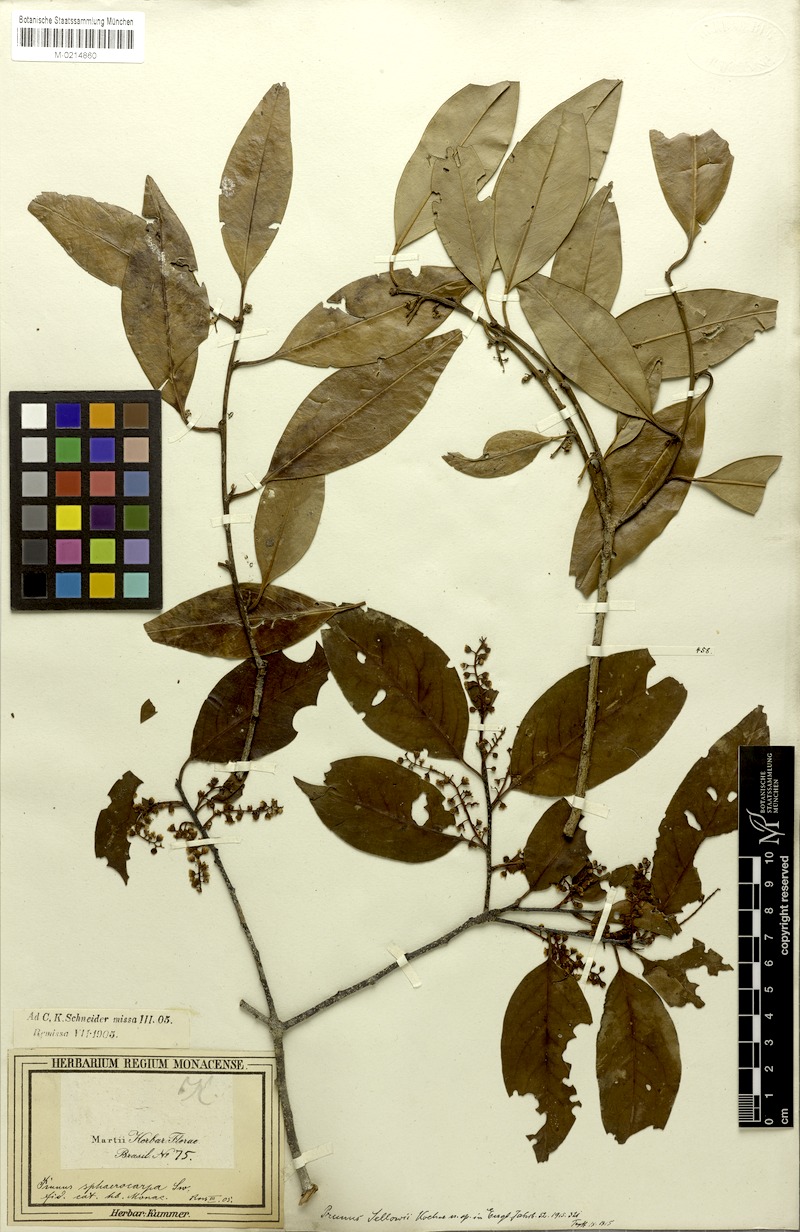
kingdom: Plantae
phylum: Tracheophyta
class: Magnoliopsida
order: Rosales
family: Rosaceae
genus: Prunus
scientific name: Prunus reflexa
